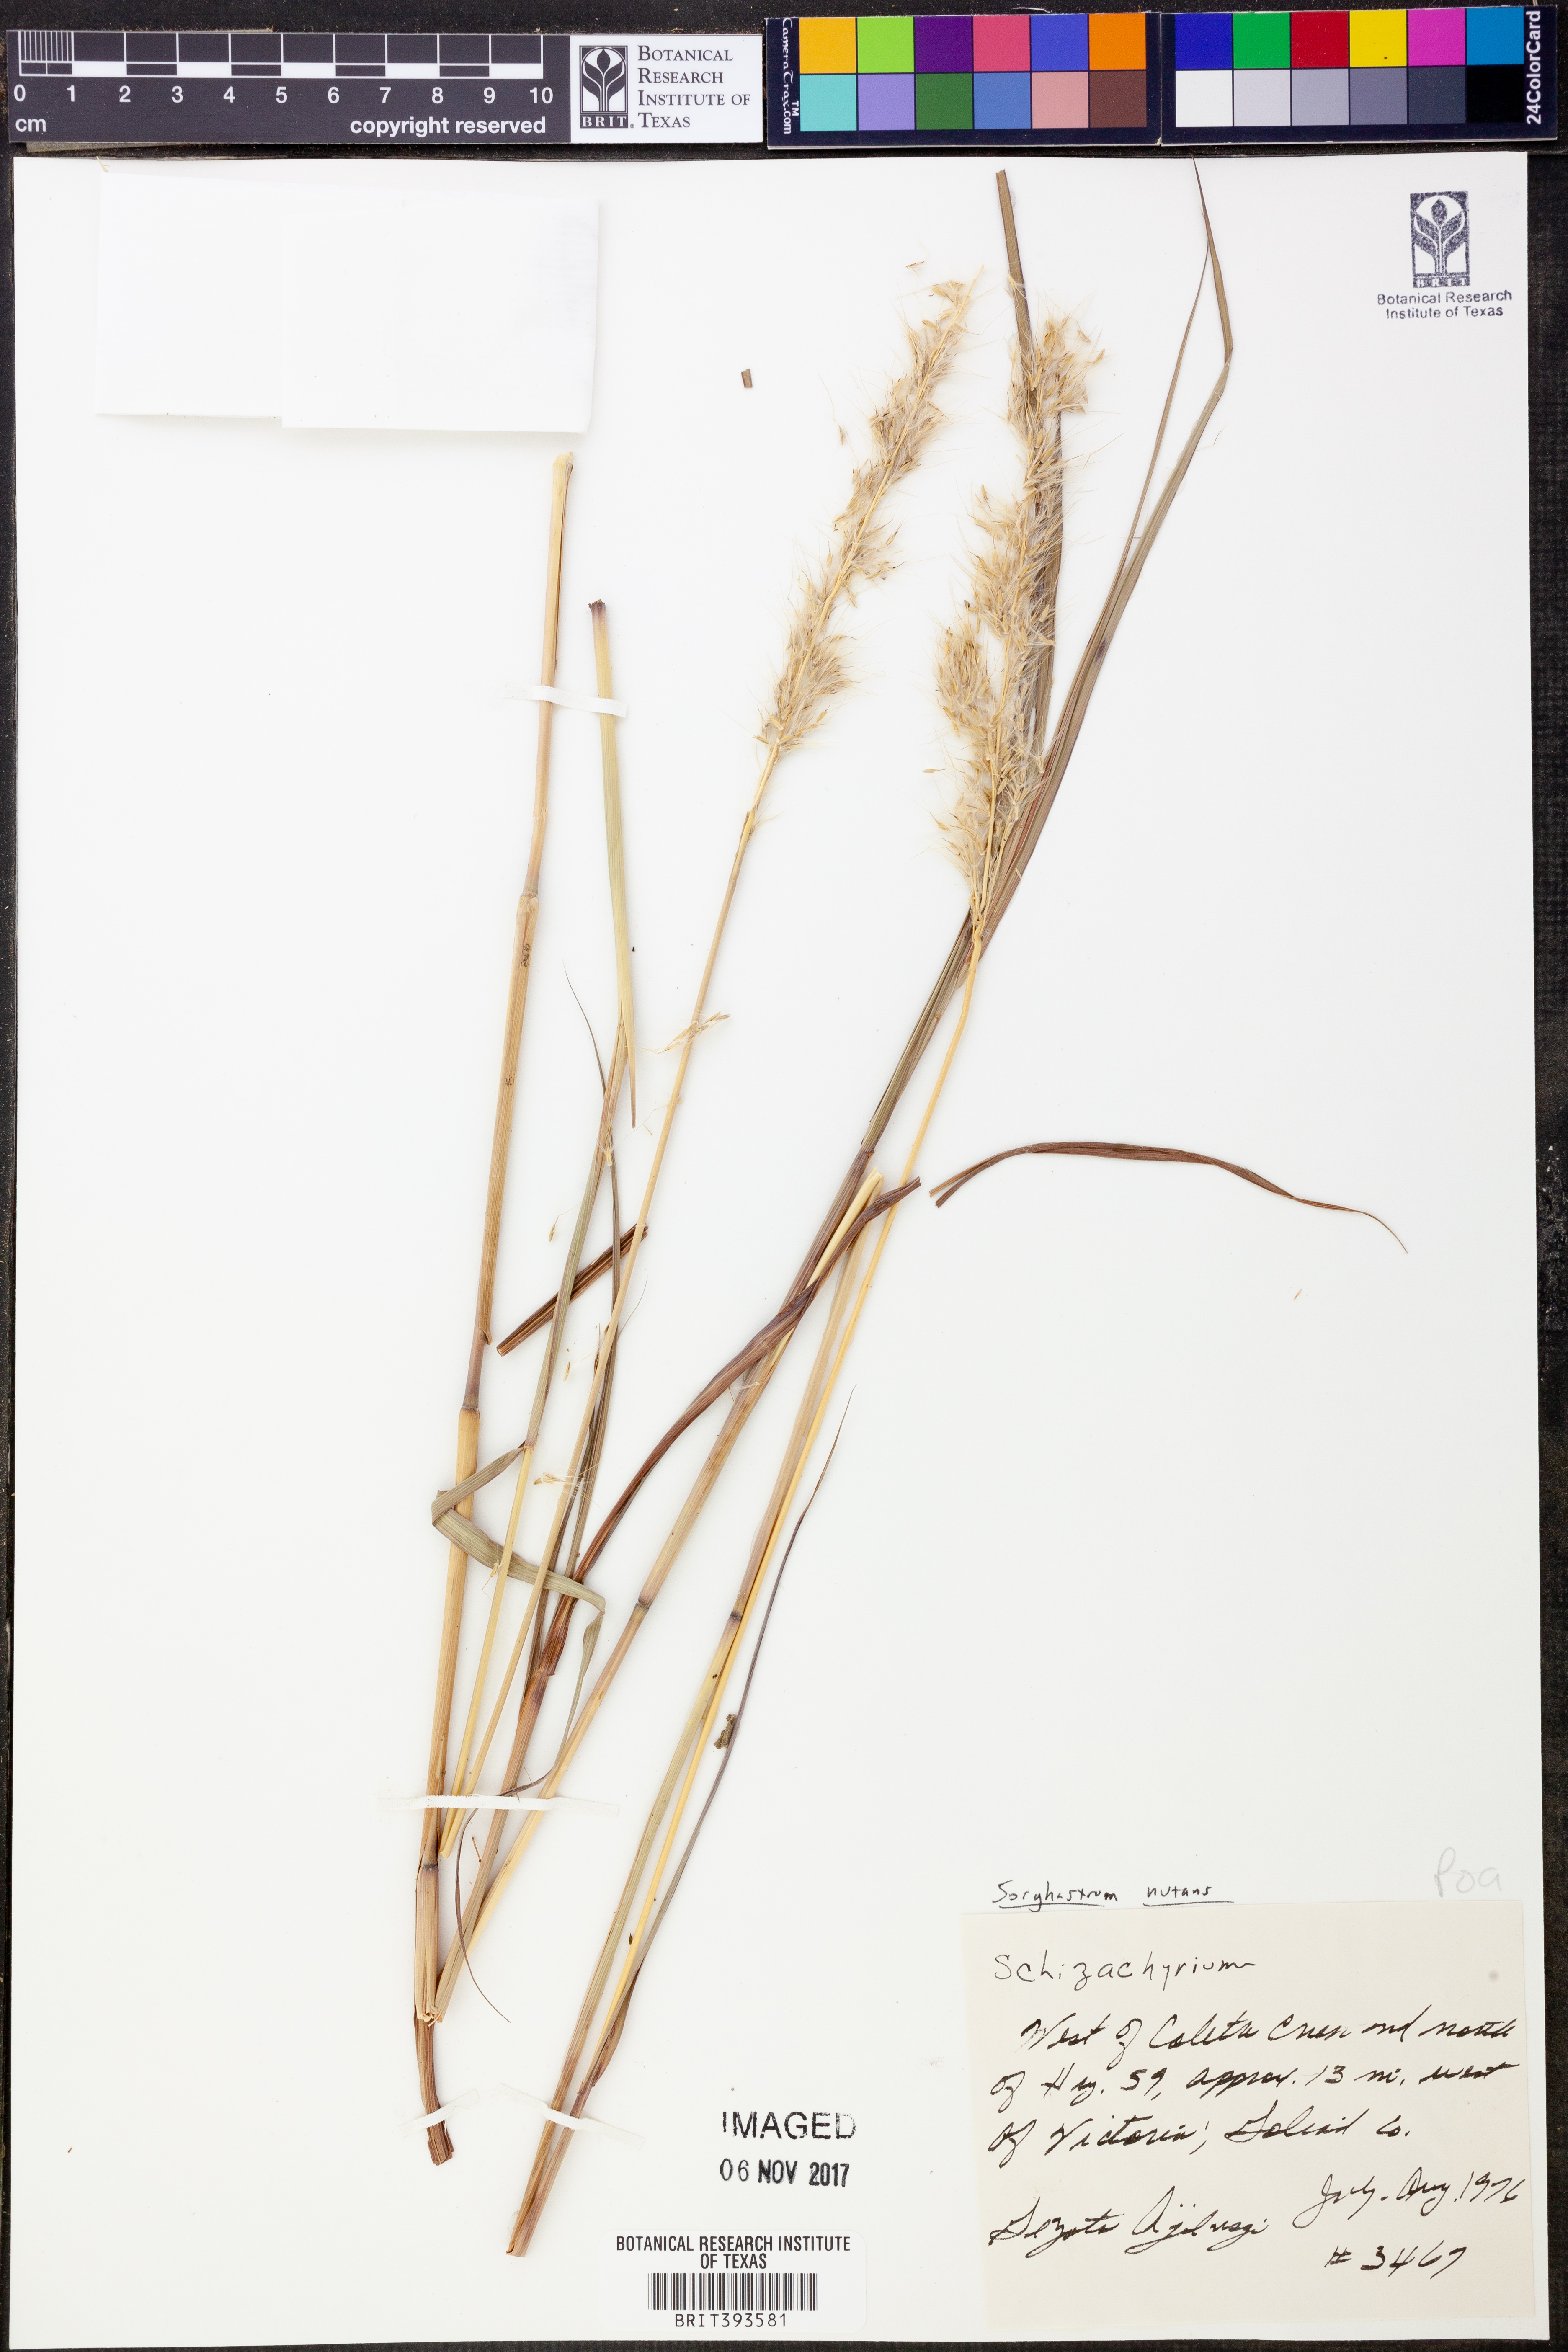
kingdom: Plantae
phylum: Tracheophyta
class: Liliopsida
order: Poales
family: Poaceae
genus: Sorghastrum
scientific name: Sorghastrum nutans
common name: Indian grass
